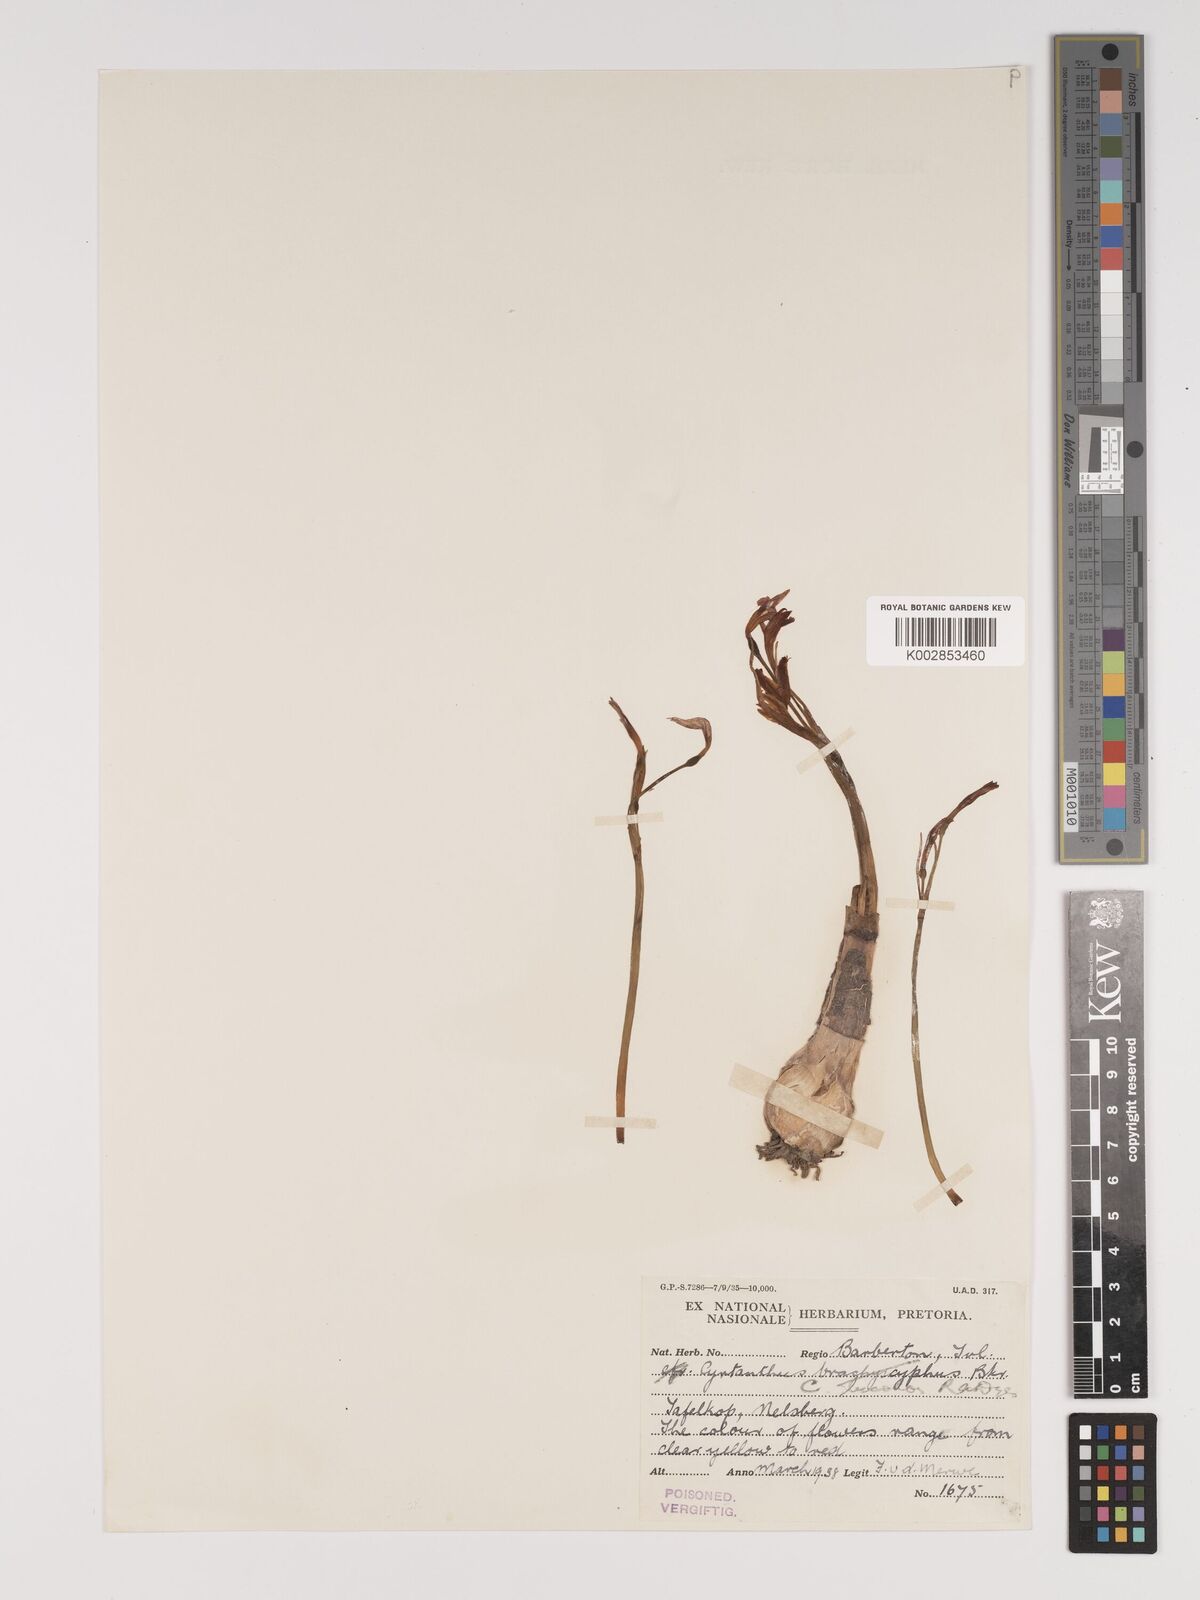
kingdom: Plantae
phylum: Tracheophyta
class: Liliopsida
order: Asparagales
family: Amaryllidaceae
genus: Cyrtanthus
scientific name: Cyrtanthus bicolor
